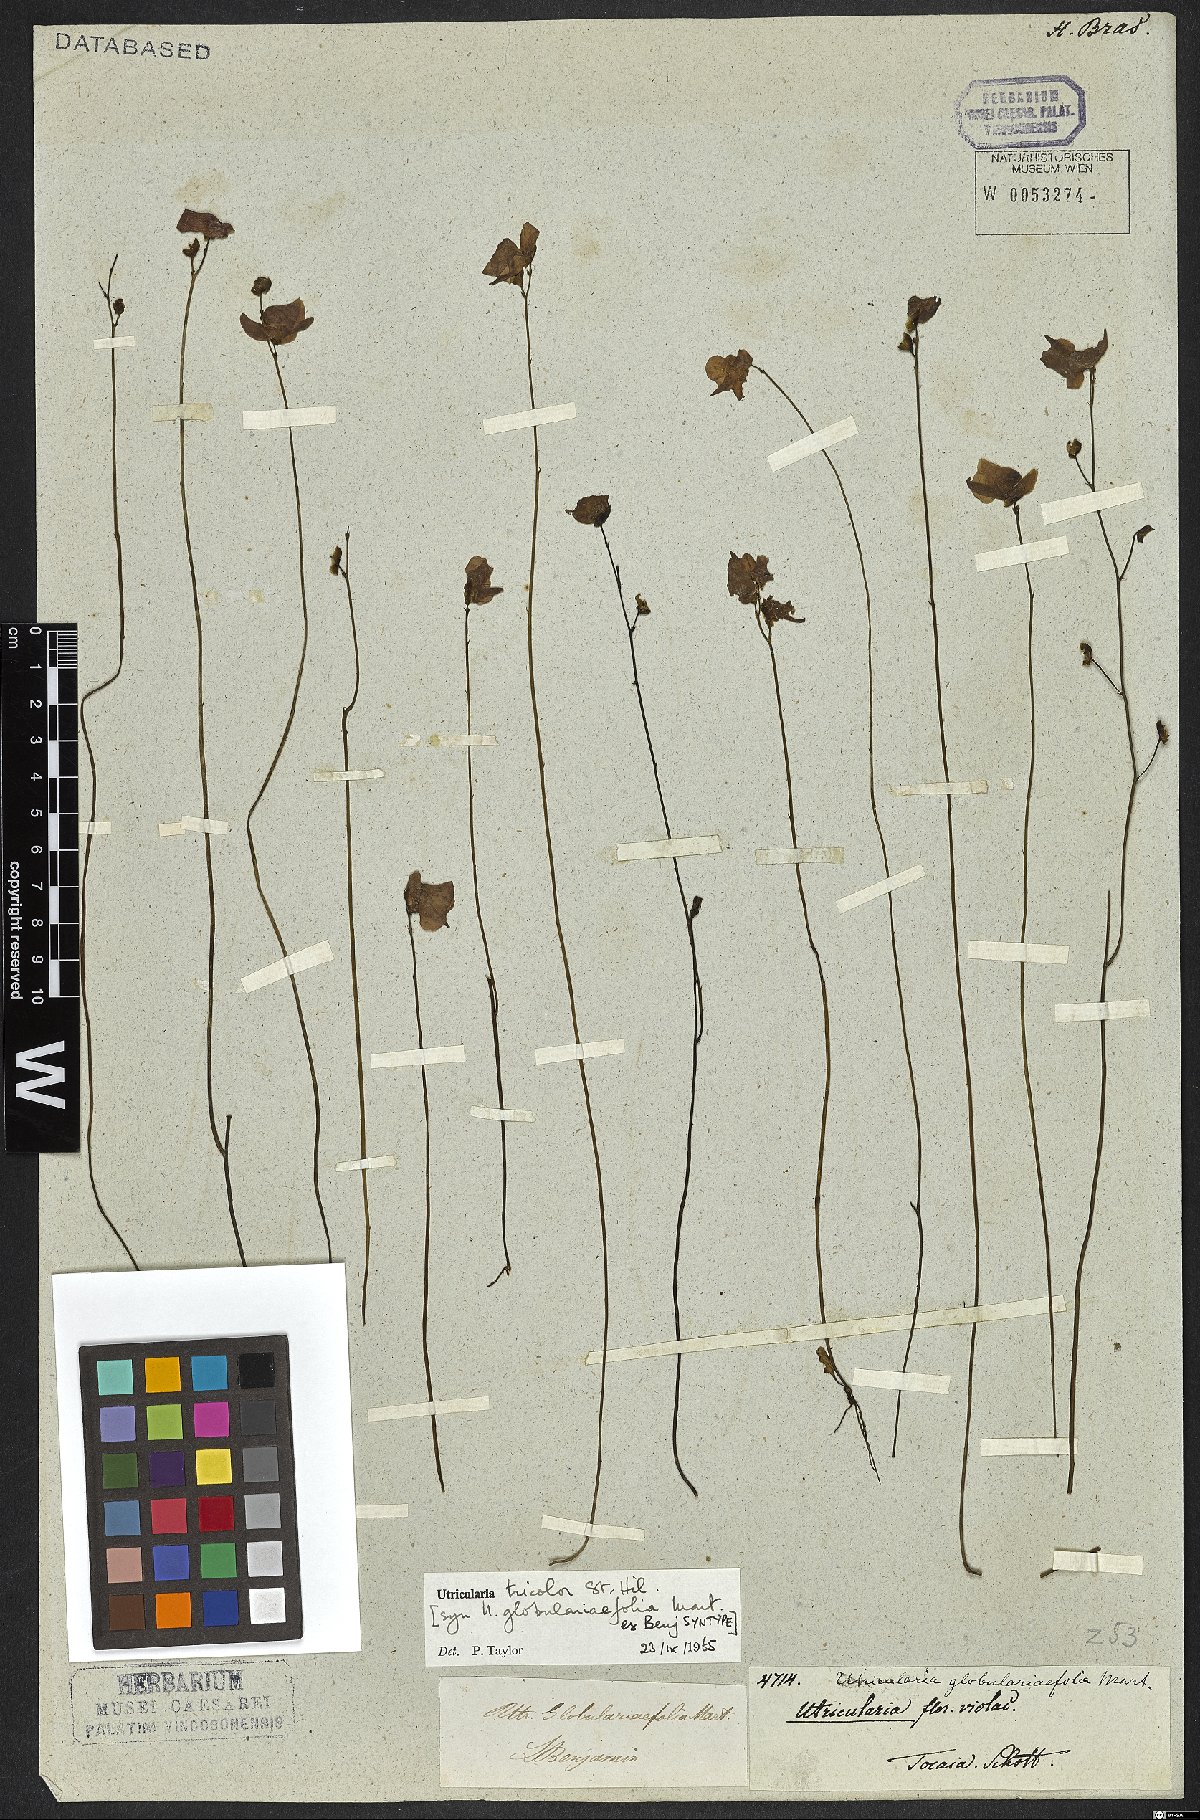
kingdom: Plantae
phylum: Tracheophyta
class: Magnoliopsida
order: Lamiales
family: Lentibulariaceae
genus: Utricularia
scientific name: Utricularia tricolor
